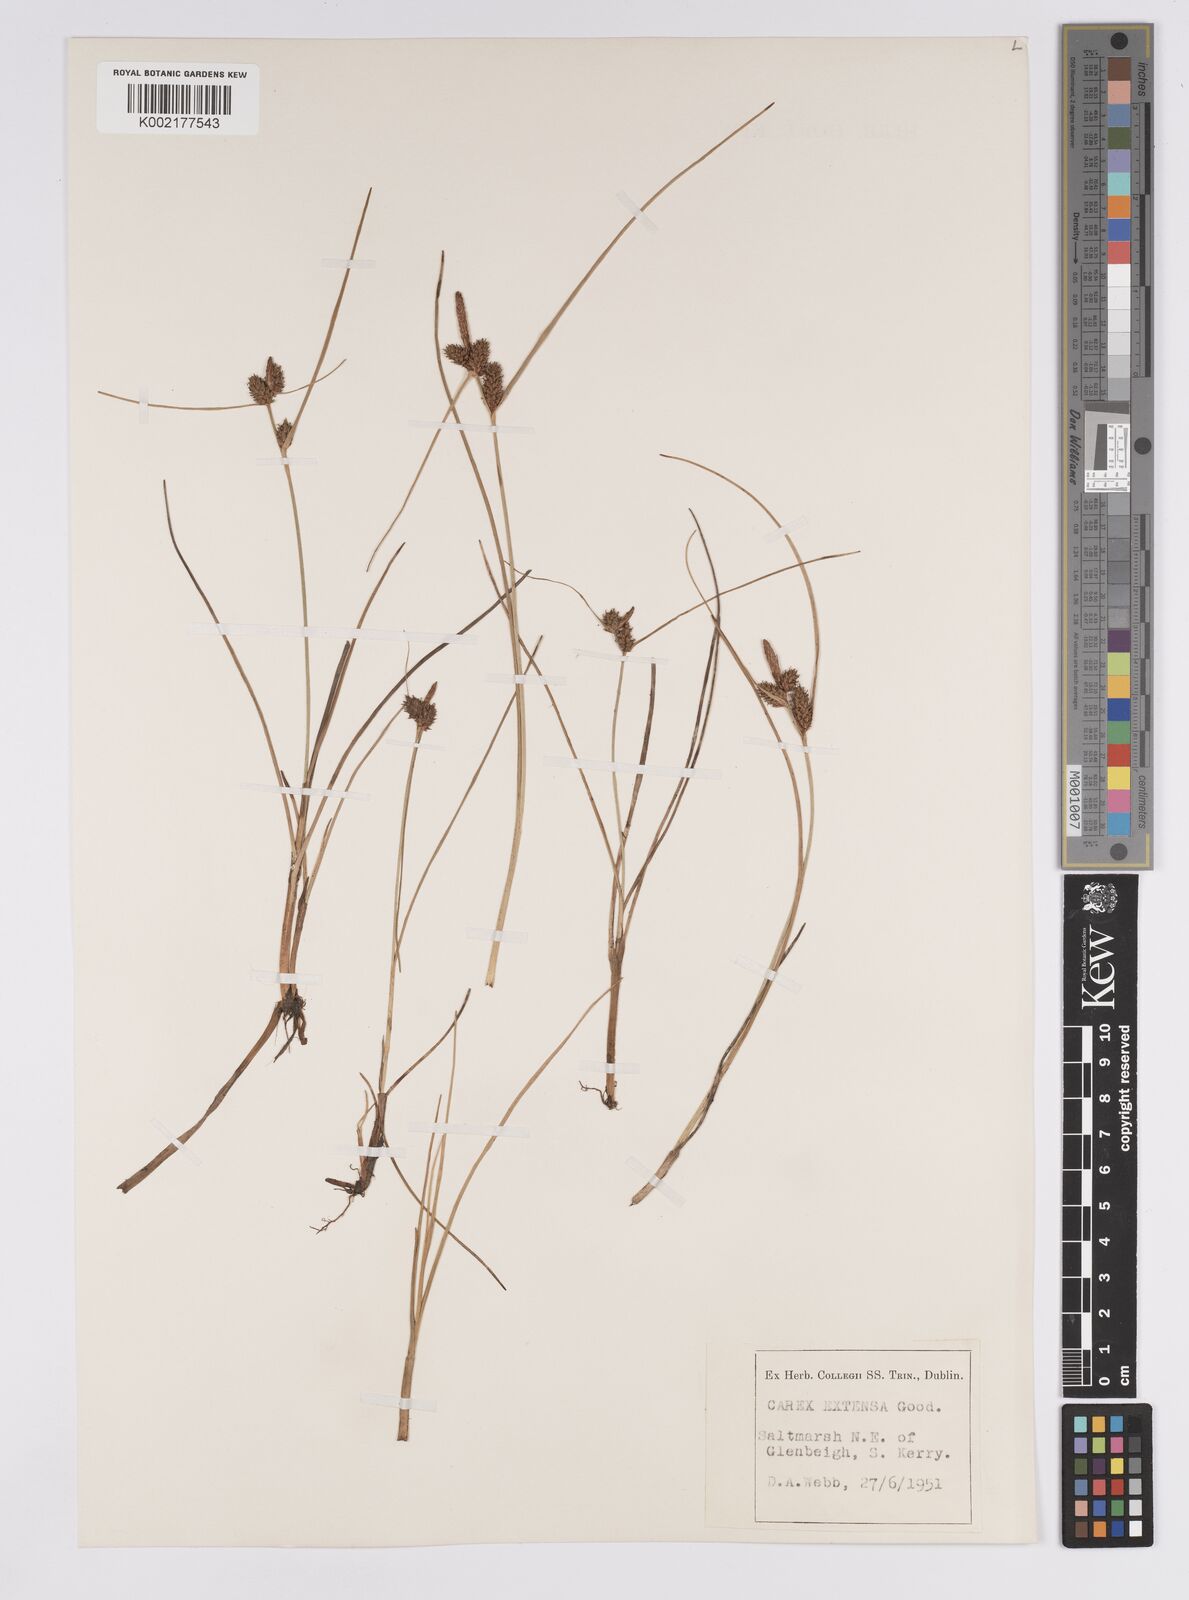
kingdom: Plantae
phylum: Tracheophyta
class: Liliopsida
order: Poales
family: Cyperaceae
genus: Carex
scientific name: Carex extensa
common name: Long-bracted sedge
